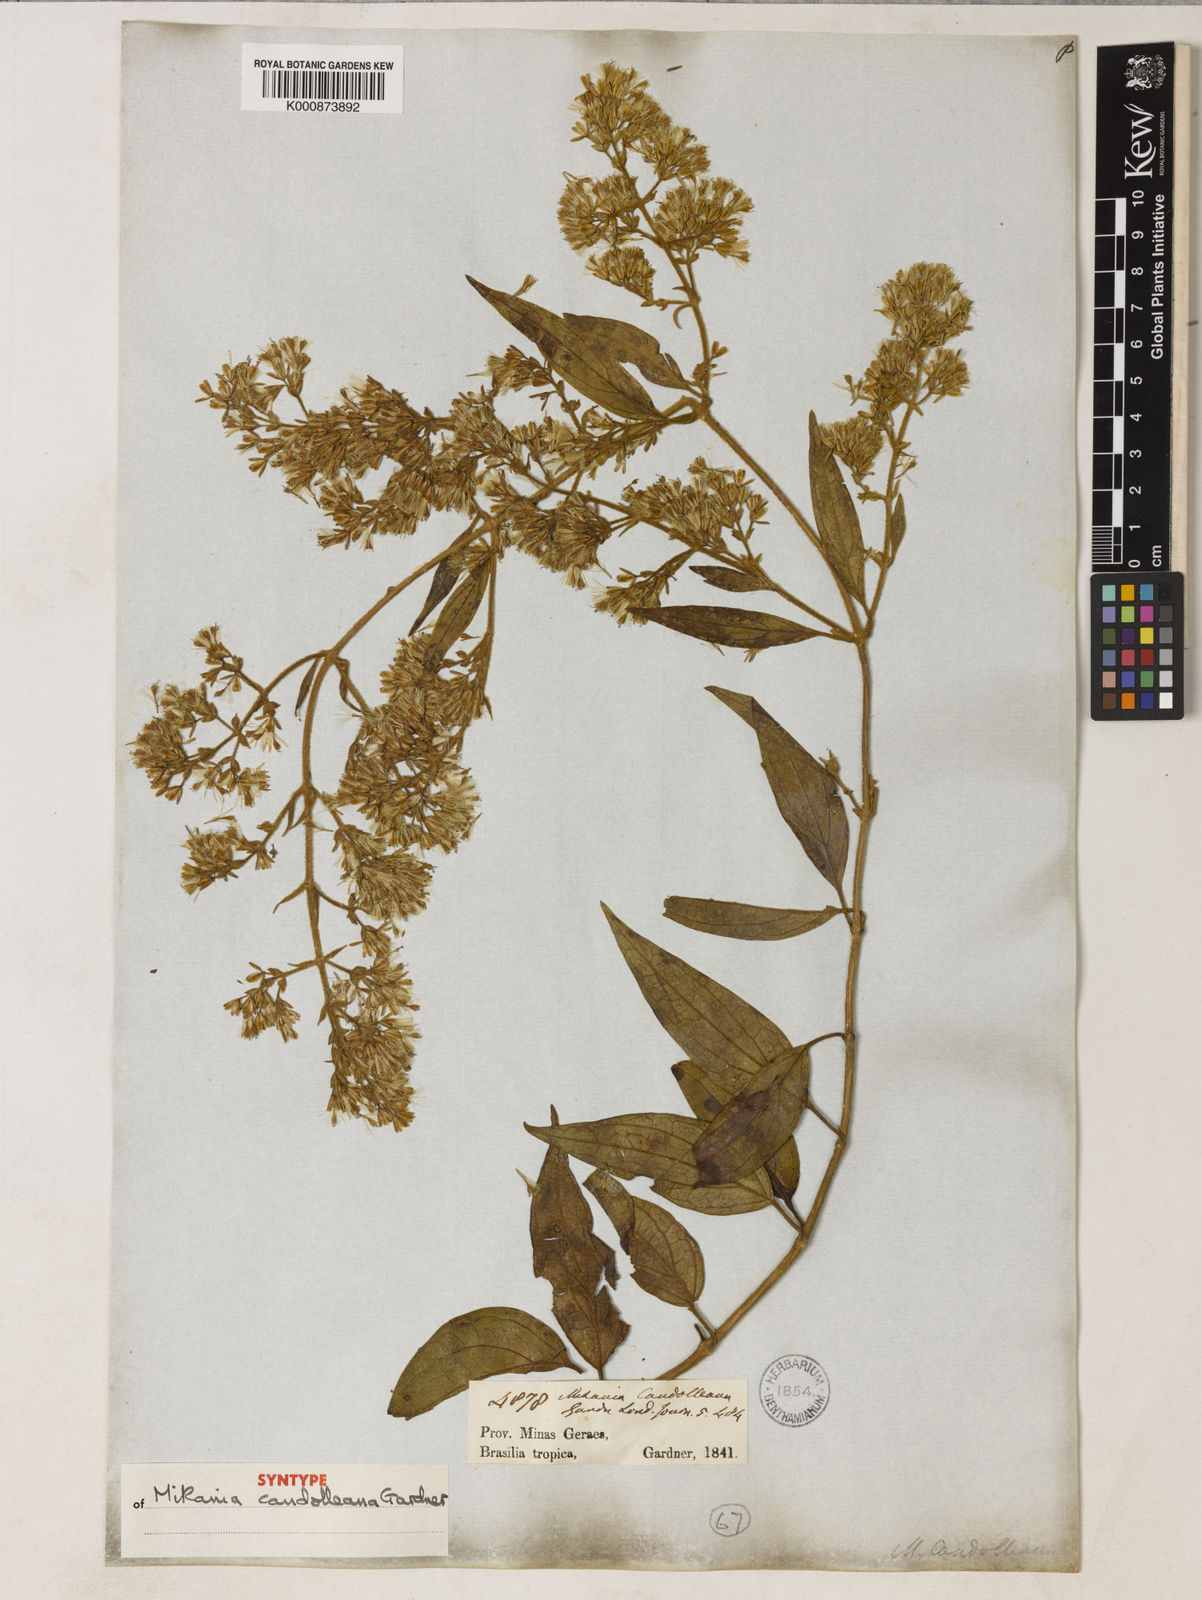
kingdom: Plantae
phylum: Tracheophyta
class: Magnoliopsida
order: Asterales
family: Asteraceae
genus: Mikania
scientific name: Mikania candolleana
